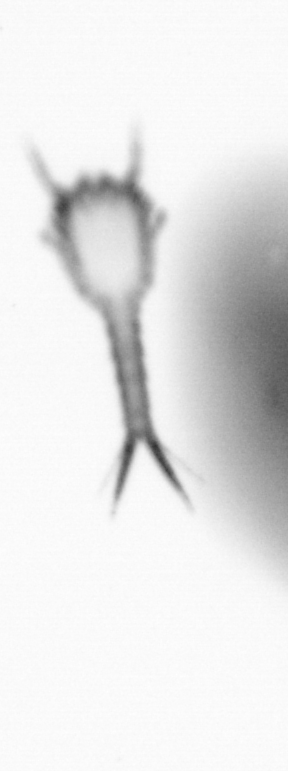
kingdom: Animalia
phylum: Arthropoda
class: Copepoda
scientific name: Copepoda
